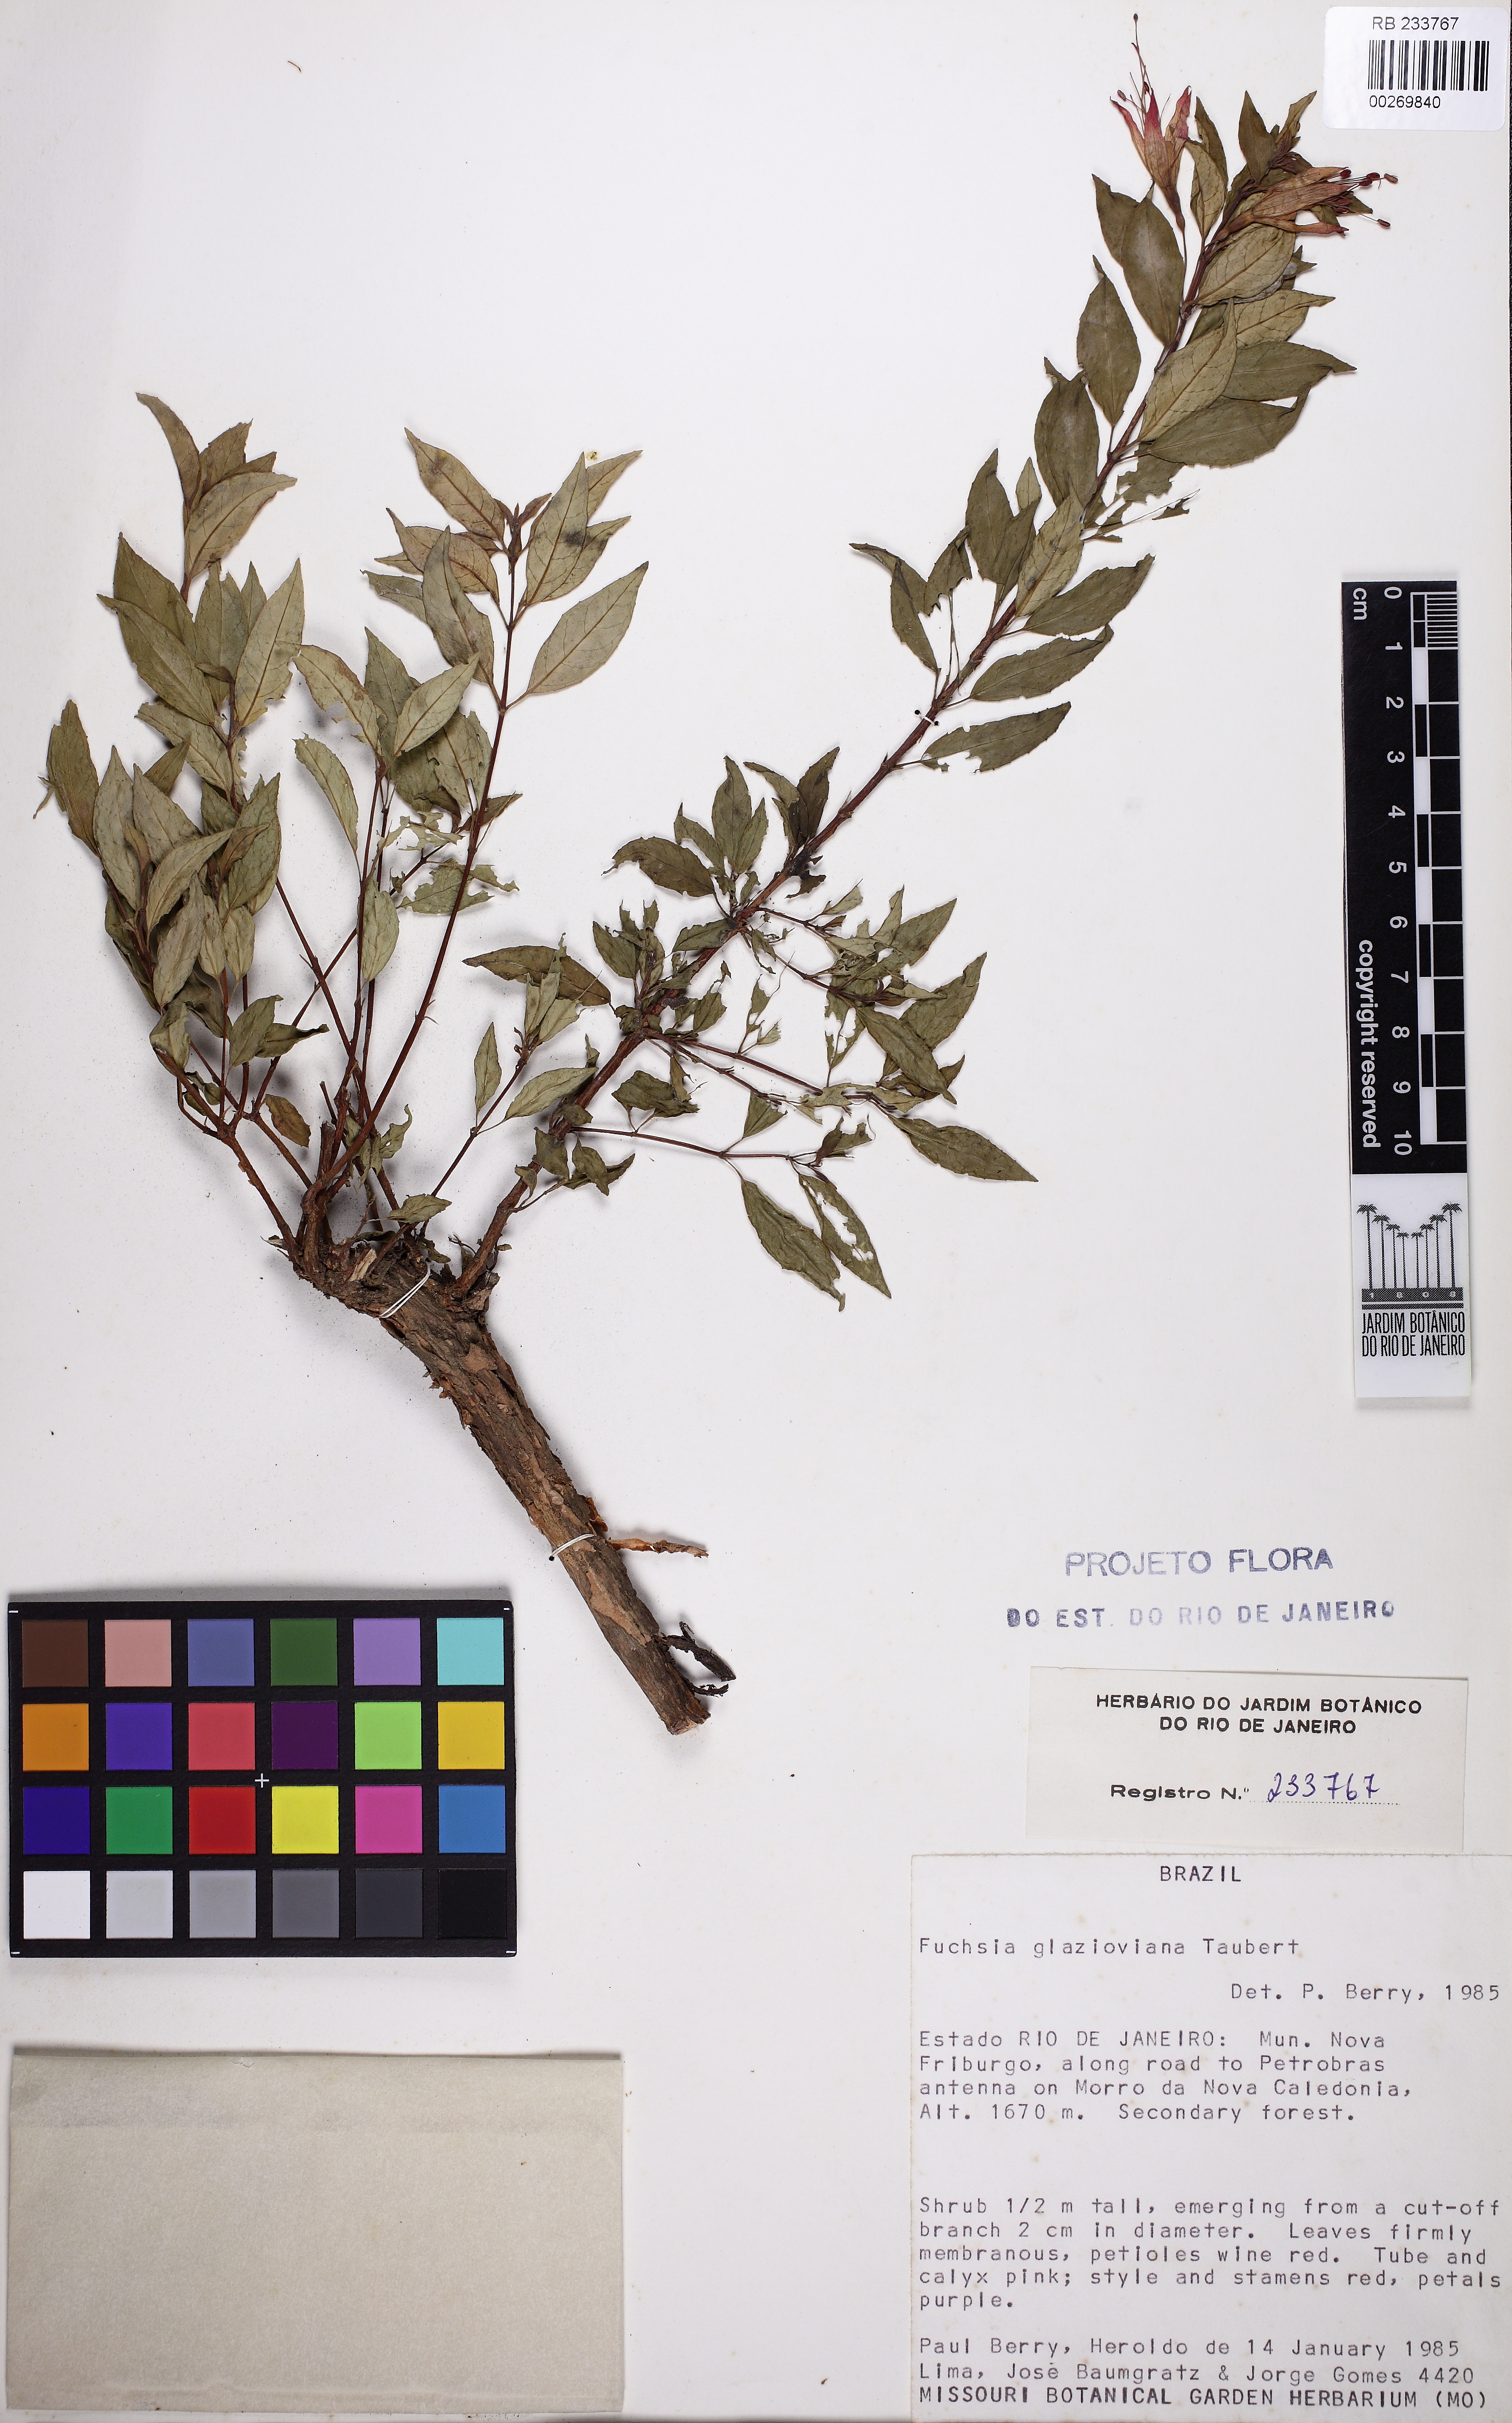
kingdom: Plantae
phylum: Tracheophyta
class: Magnoliopsida
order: Myrtales
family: Onagraceae
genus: Fuchsia
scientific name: Fuchsia glazioviana
